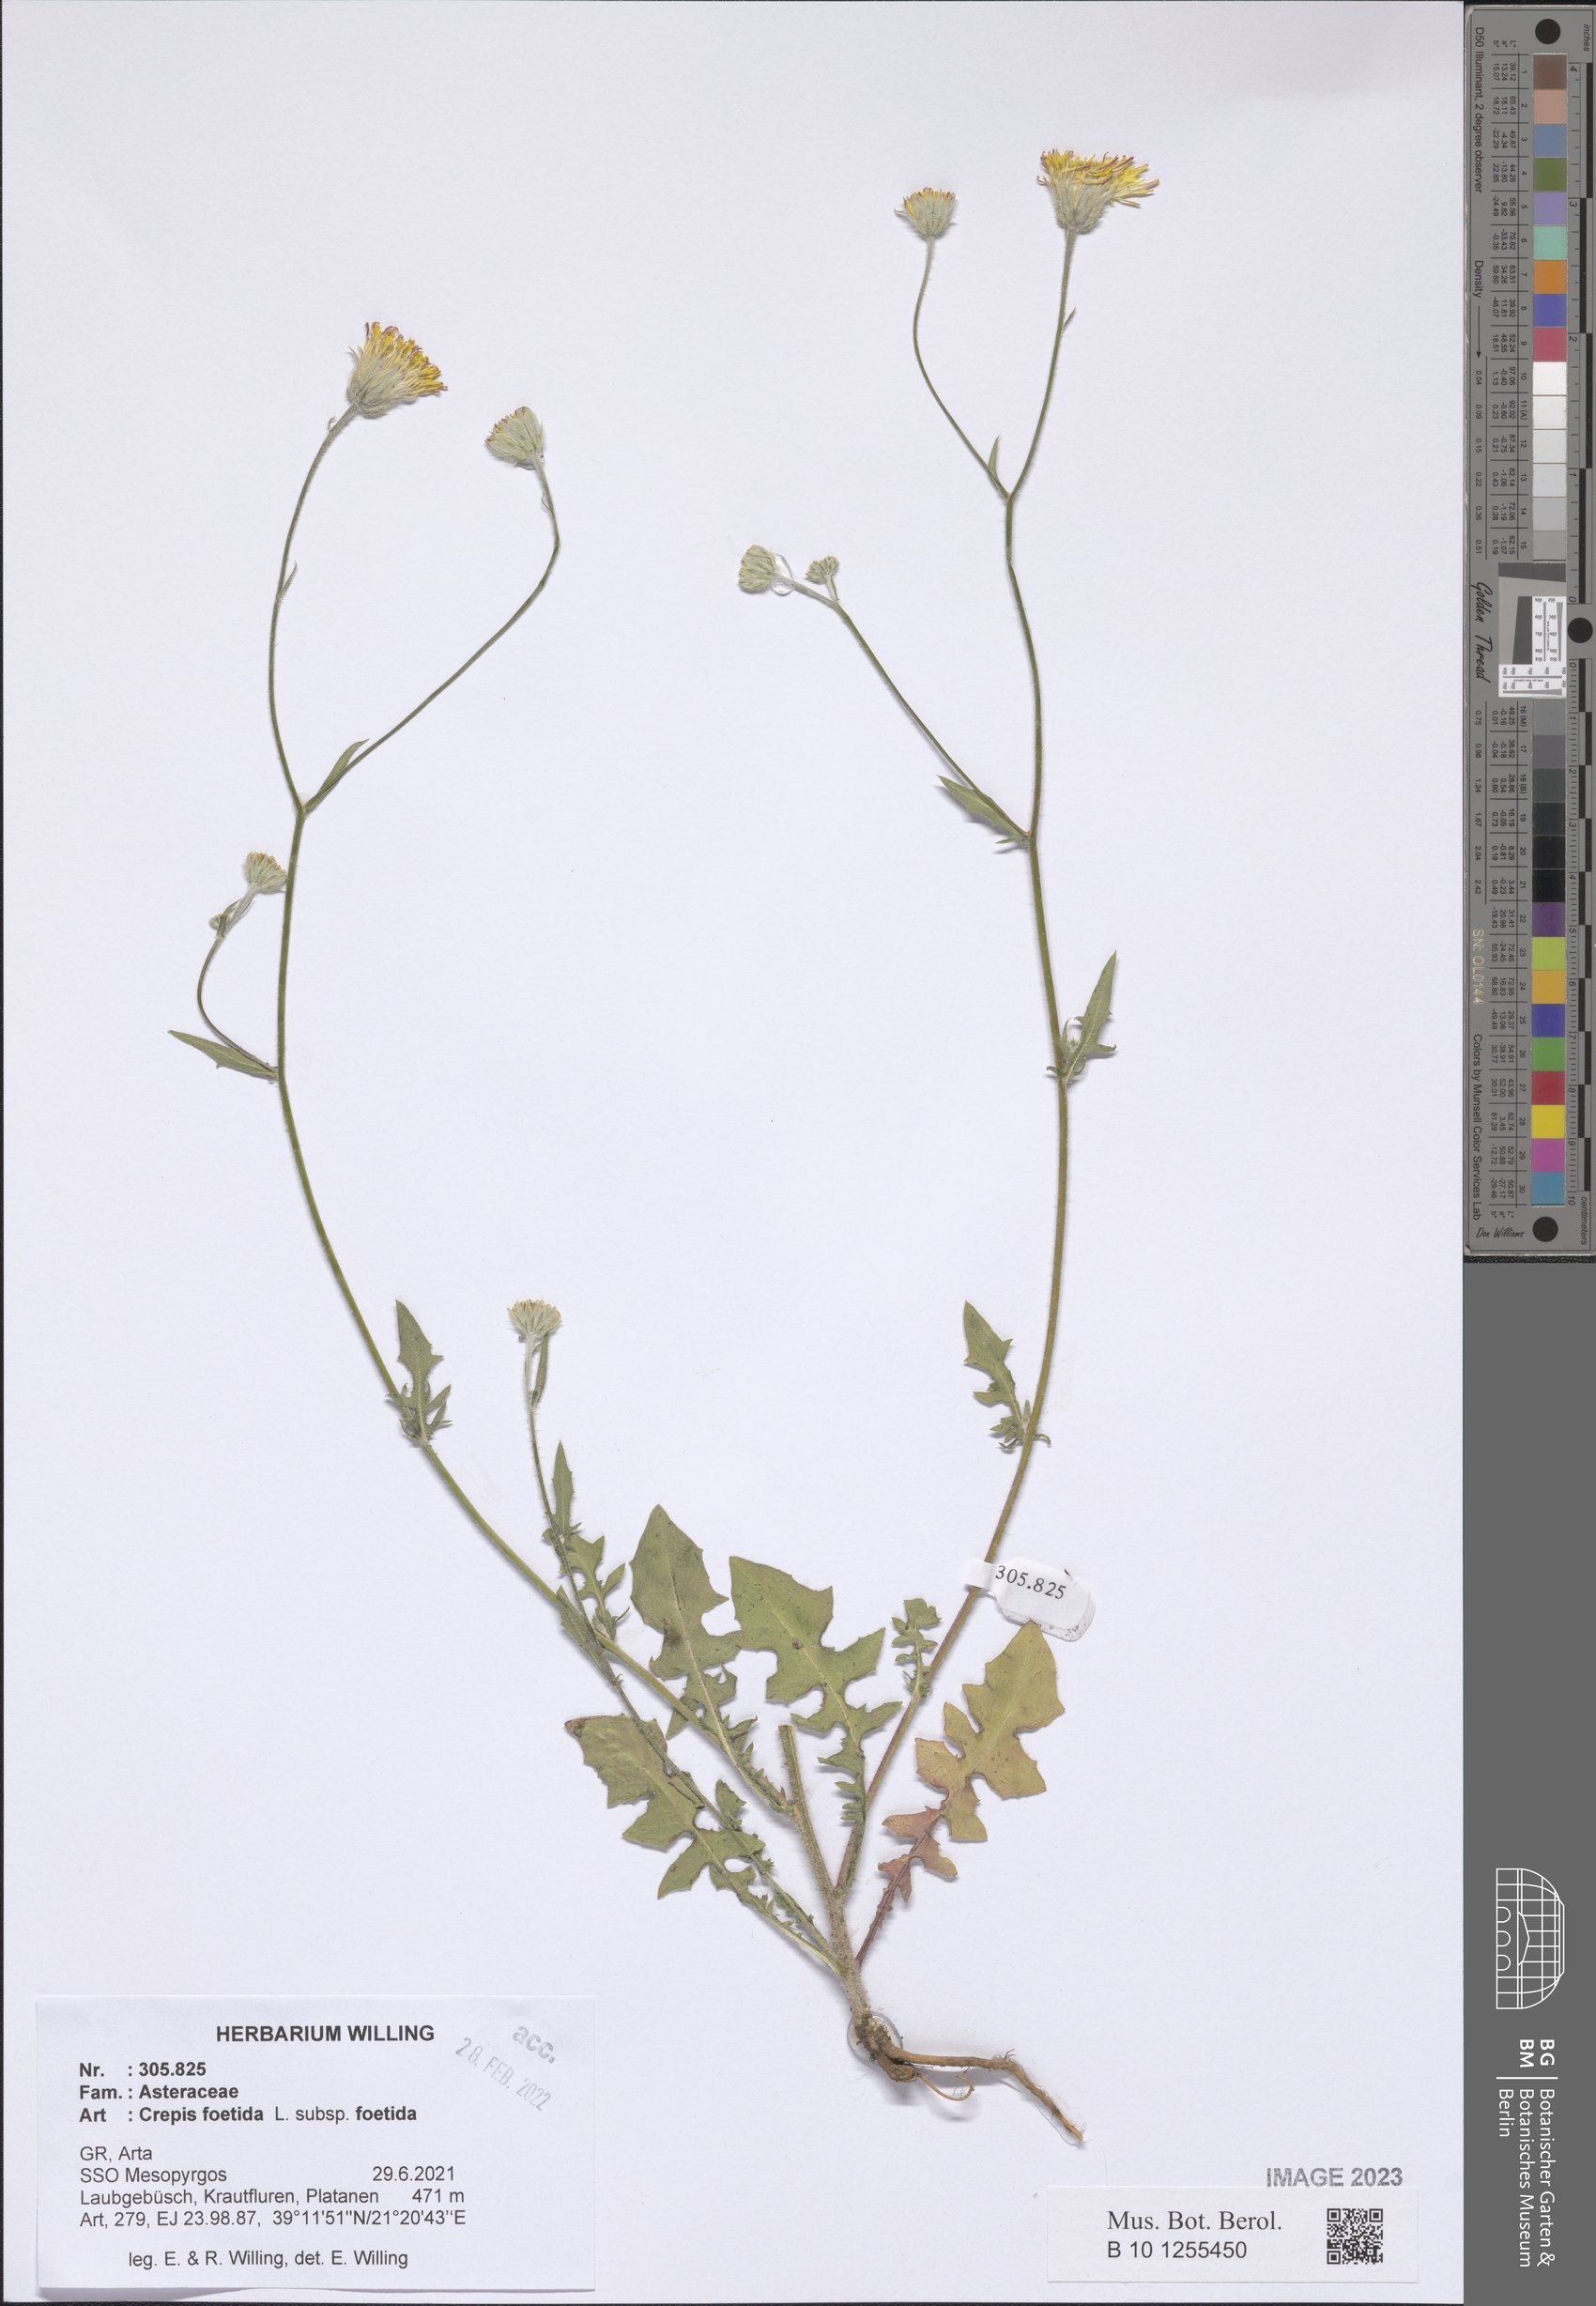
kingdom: Plantae
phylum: Tracheophyta
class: Magnoliopsida
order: Asterales
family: Asteraceae
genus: Crepis
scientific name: Crepis foetida
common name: Stinking hawk's-beard
